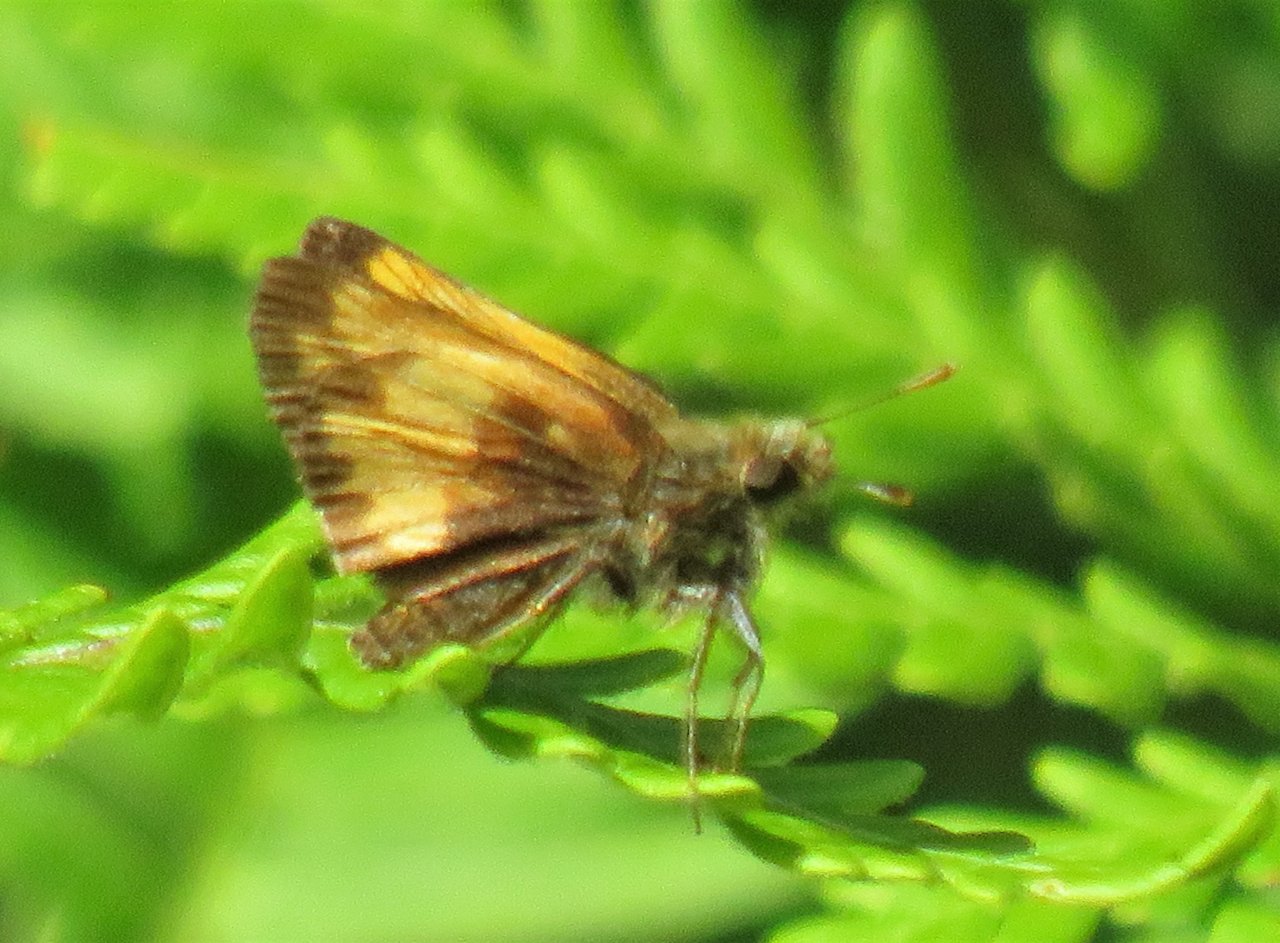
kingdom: Animalia
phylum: Arthropoda
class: Insecta
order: Lepidoptera
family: Hesperiidae
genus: Lon
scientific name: Lon hobomok
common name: Hobomok Skipper
